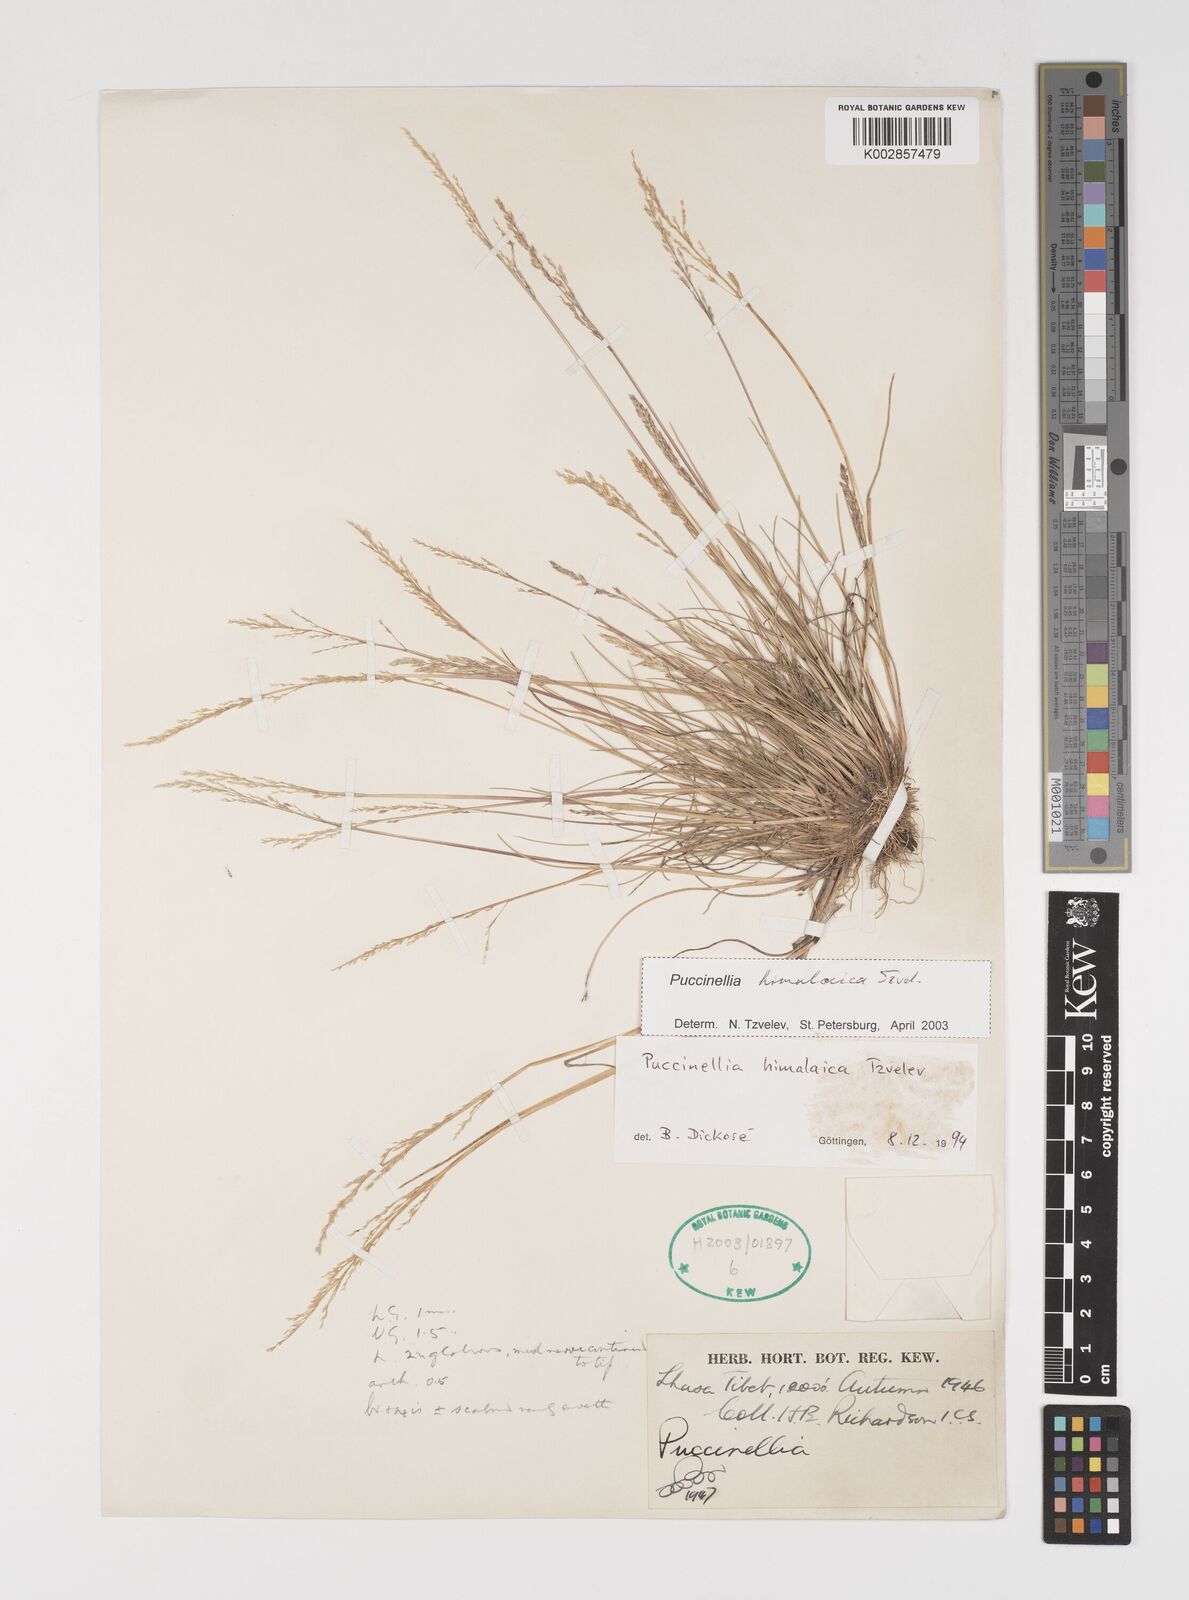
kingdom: Plantae
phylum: Tracheophyta
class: Liliopsida
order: Poales
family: Poaceae
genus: Puccinellia
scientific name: Puccinellia himalaica
